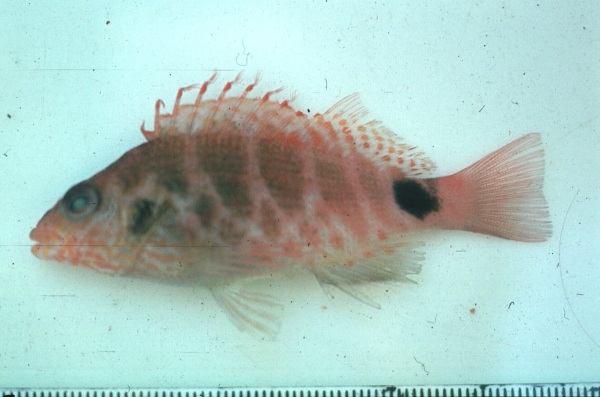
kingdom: Animalia
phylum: Chordata
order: Perciformes
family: Cirrhitidae
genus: Cirrhitops
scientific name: Cirrhitops fasciatus
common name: Redbarred hawkfish
